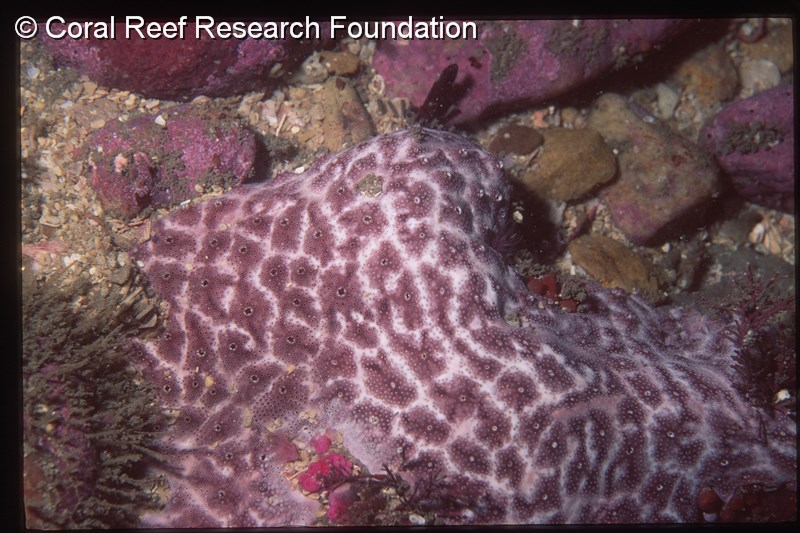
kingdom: Animalia
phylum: Chordata
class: Ascidiacea
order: Aplousobranchia
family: Didemnidae
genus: Lissoclinum
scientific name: Lissoclinum
